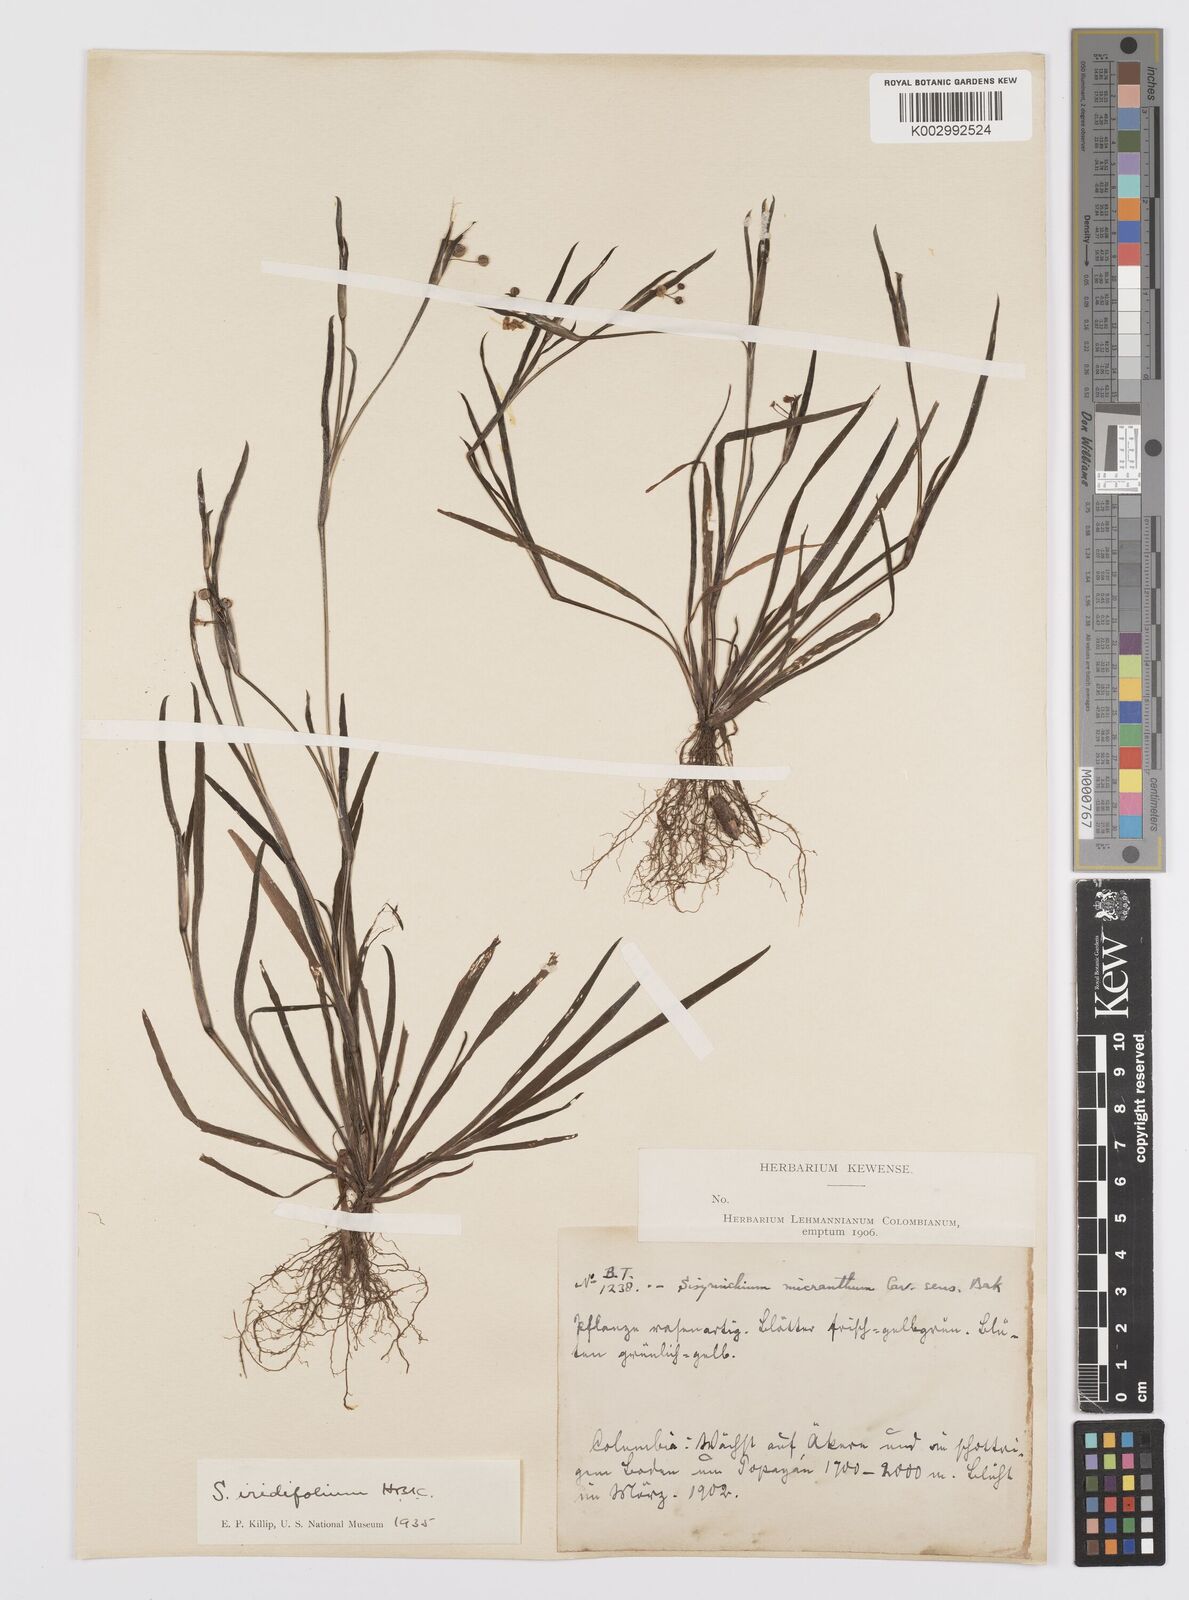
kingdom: Plantae
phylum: Tracheophyta
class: Liliopsida
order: Asparagales
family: Iridaceae
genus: Sisyrinchium
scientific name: Sisyrinchium micranthum
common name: Bermuda pigroot
